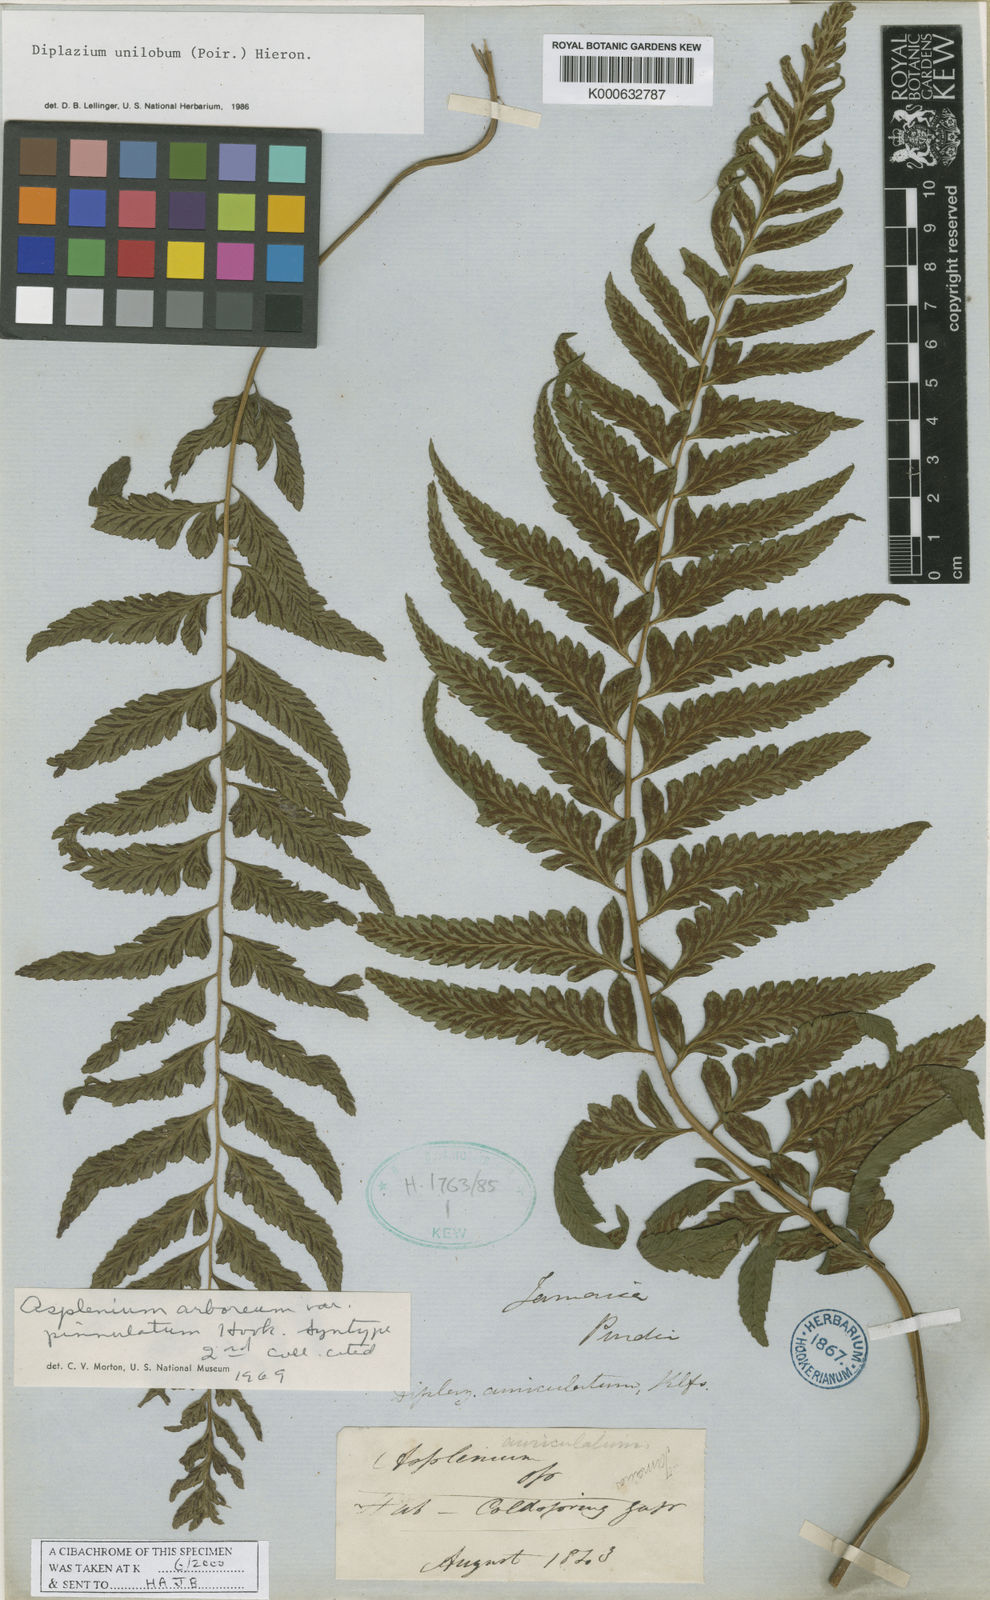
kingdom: Plantae
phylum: Tracheophyta
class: Polypodiopsida
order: Polypodiales
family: Athyriaceae
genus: Diplazium
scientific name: Diplazium unilobum
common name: Singlelobe twinsorus fern
